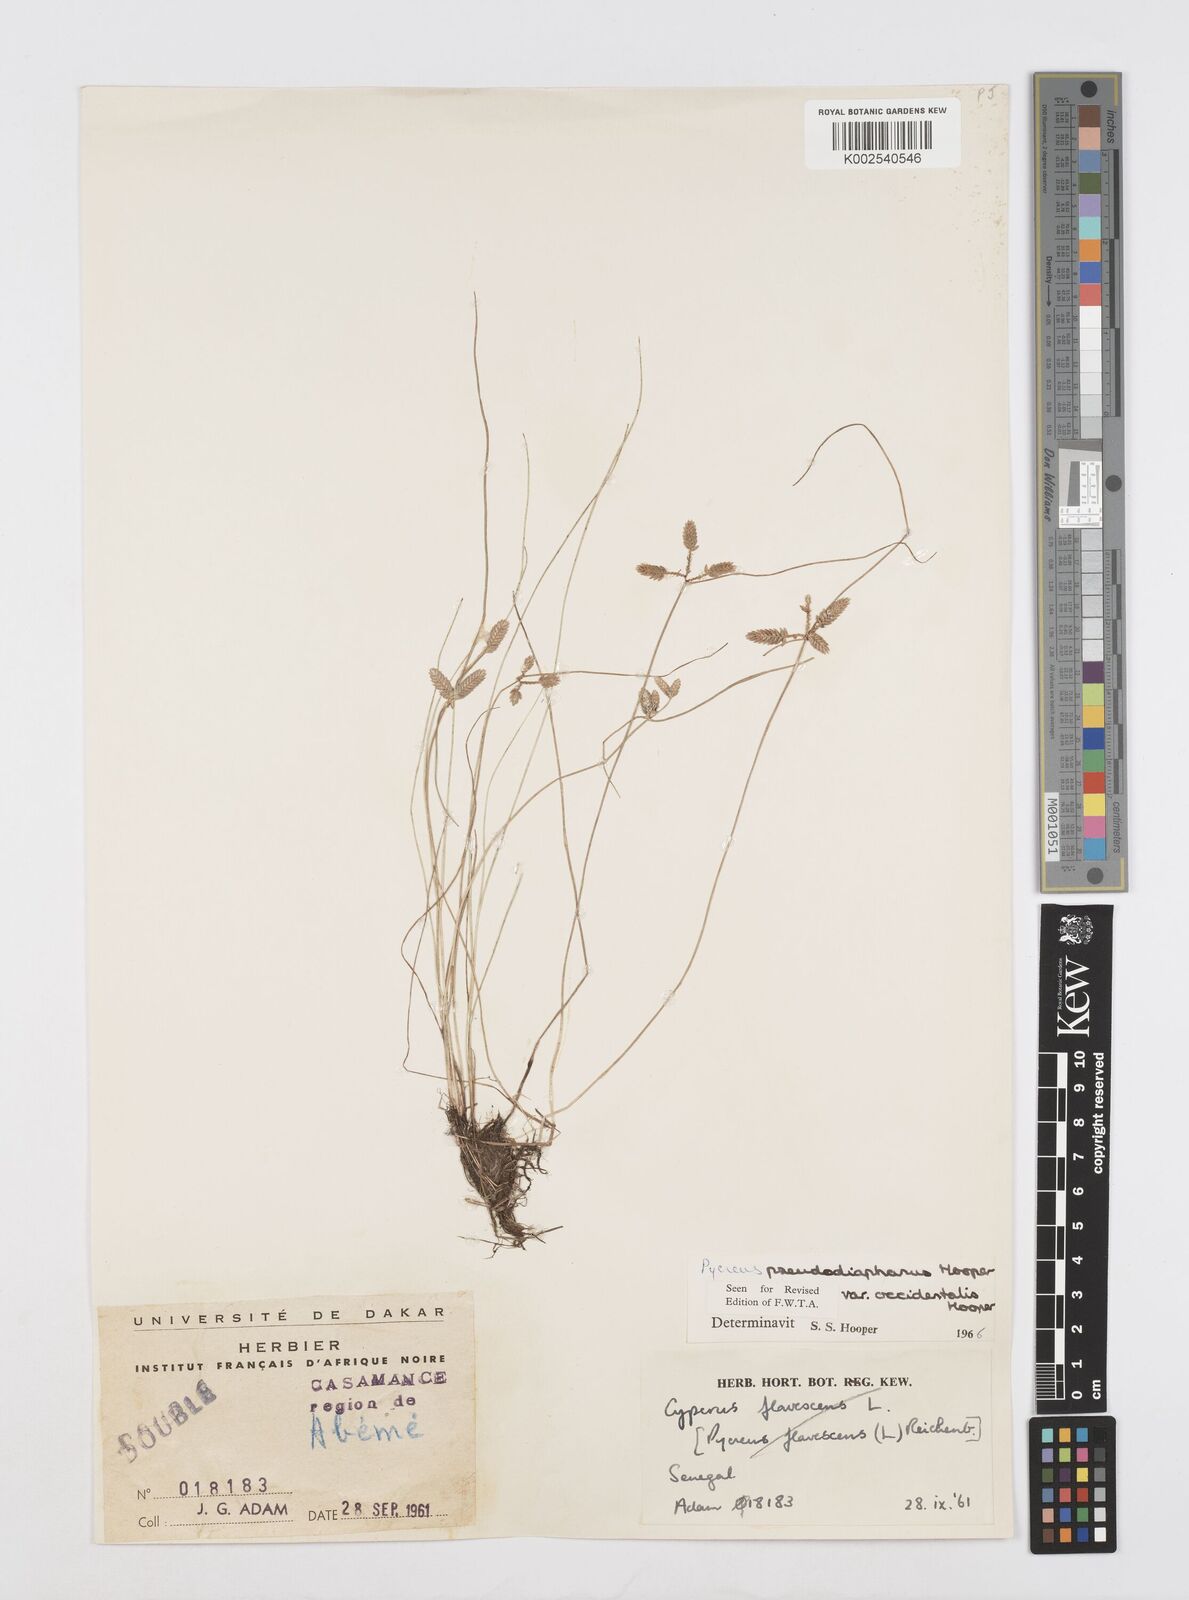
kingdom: Plantae
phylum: Tracheophyta
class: Liliopsida
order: Poales
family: Cyperaceae
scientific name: Cyperaceae
